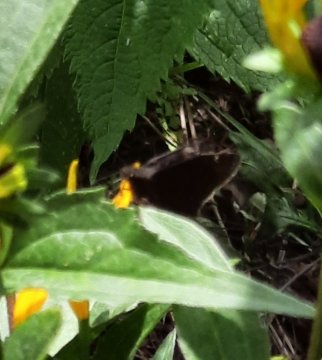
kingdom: Animalia
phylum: Arthropoda
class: Insecta
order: Lepidoptera
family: Hesperiidae
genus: Erynnis
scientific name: Erynnis
